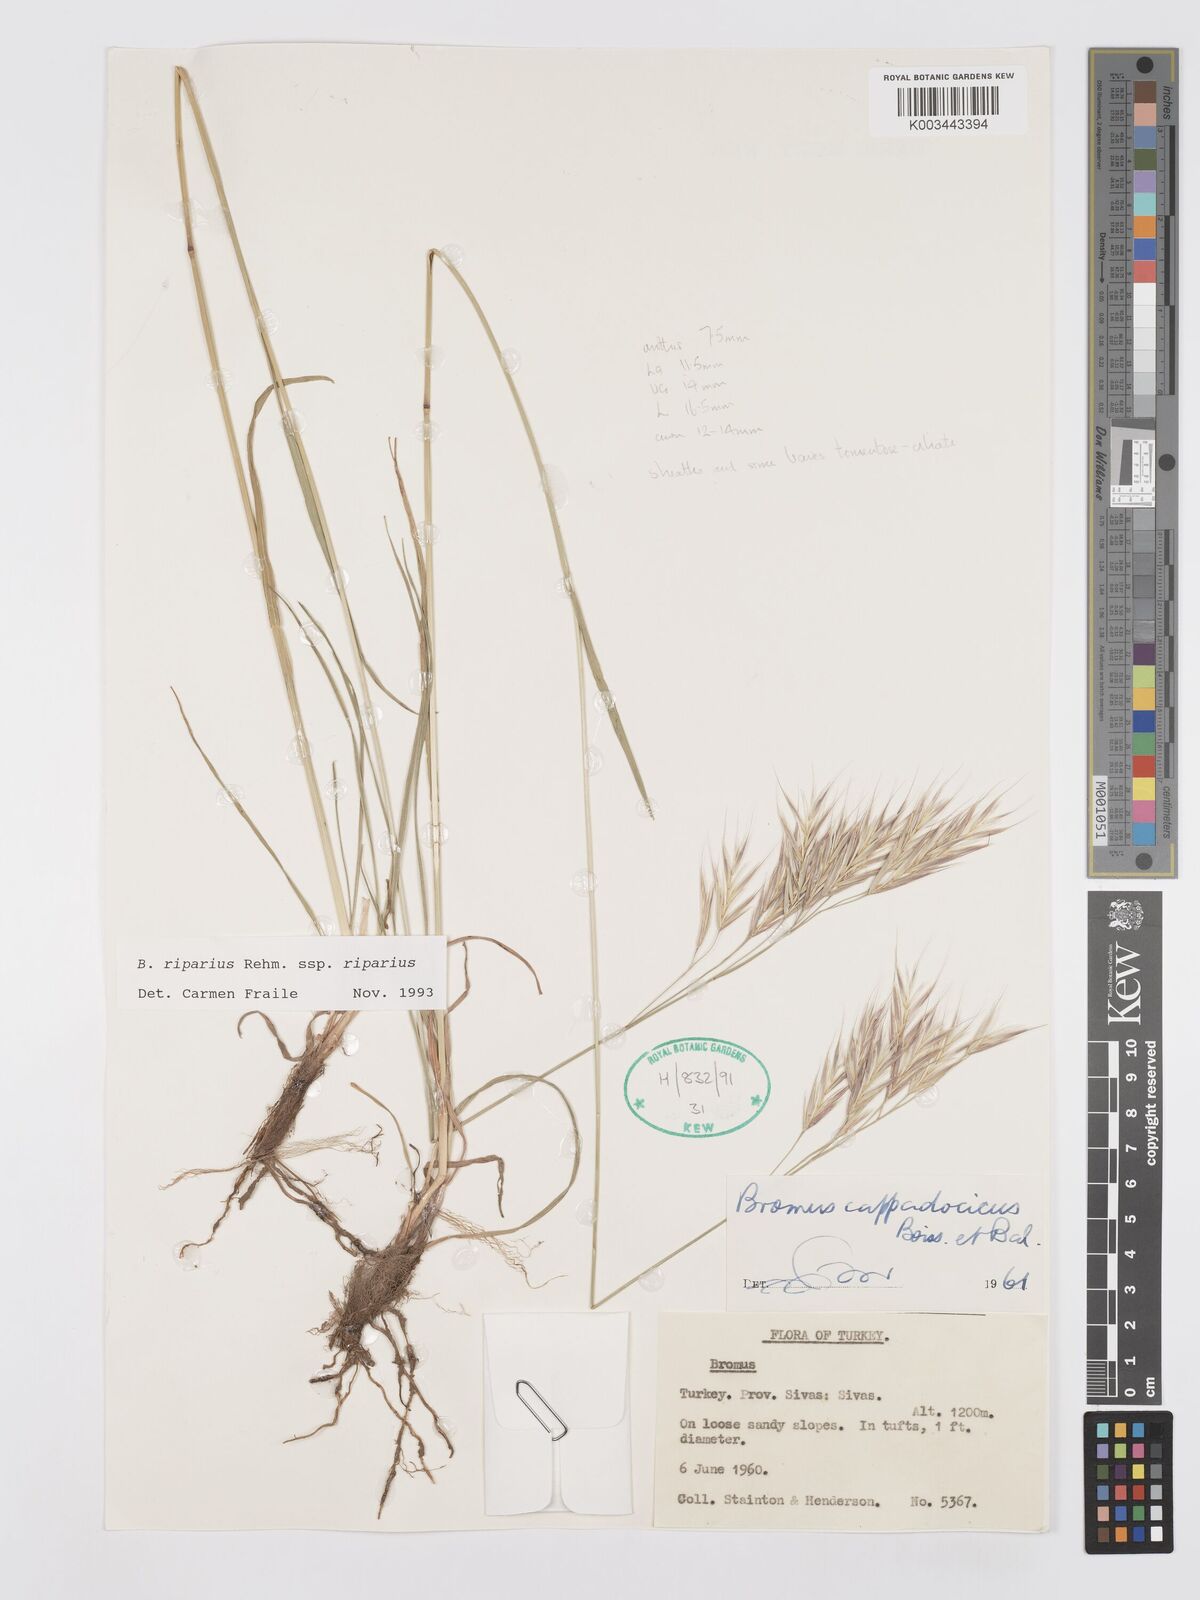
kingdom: Plantae
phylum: Tracheophyta
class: Liliopsida
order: Poales
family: Poaceae
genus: Bromus
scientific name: Bromus riparius
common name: Meadow brome
